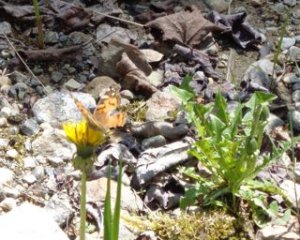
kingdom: Animalia
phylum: Arthropoda
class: Insecta
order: Lepidoptera
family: Nymphalidae
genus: Vanessa
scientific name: Vanessa virginiensis
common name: American Lady
